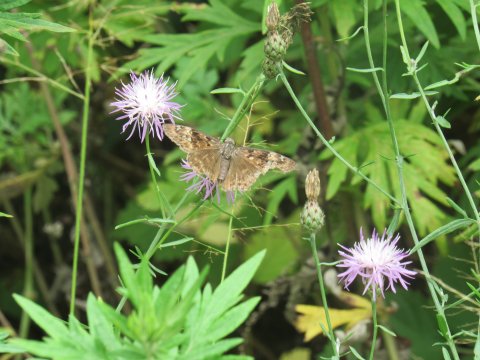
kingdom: Animalia
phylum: Arthropoda
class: Insecta
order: Lepidoptera
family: Hesperiidae
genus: Gesta
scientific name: Gesta
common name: Horace's Duskywing
